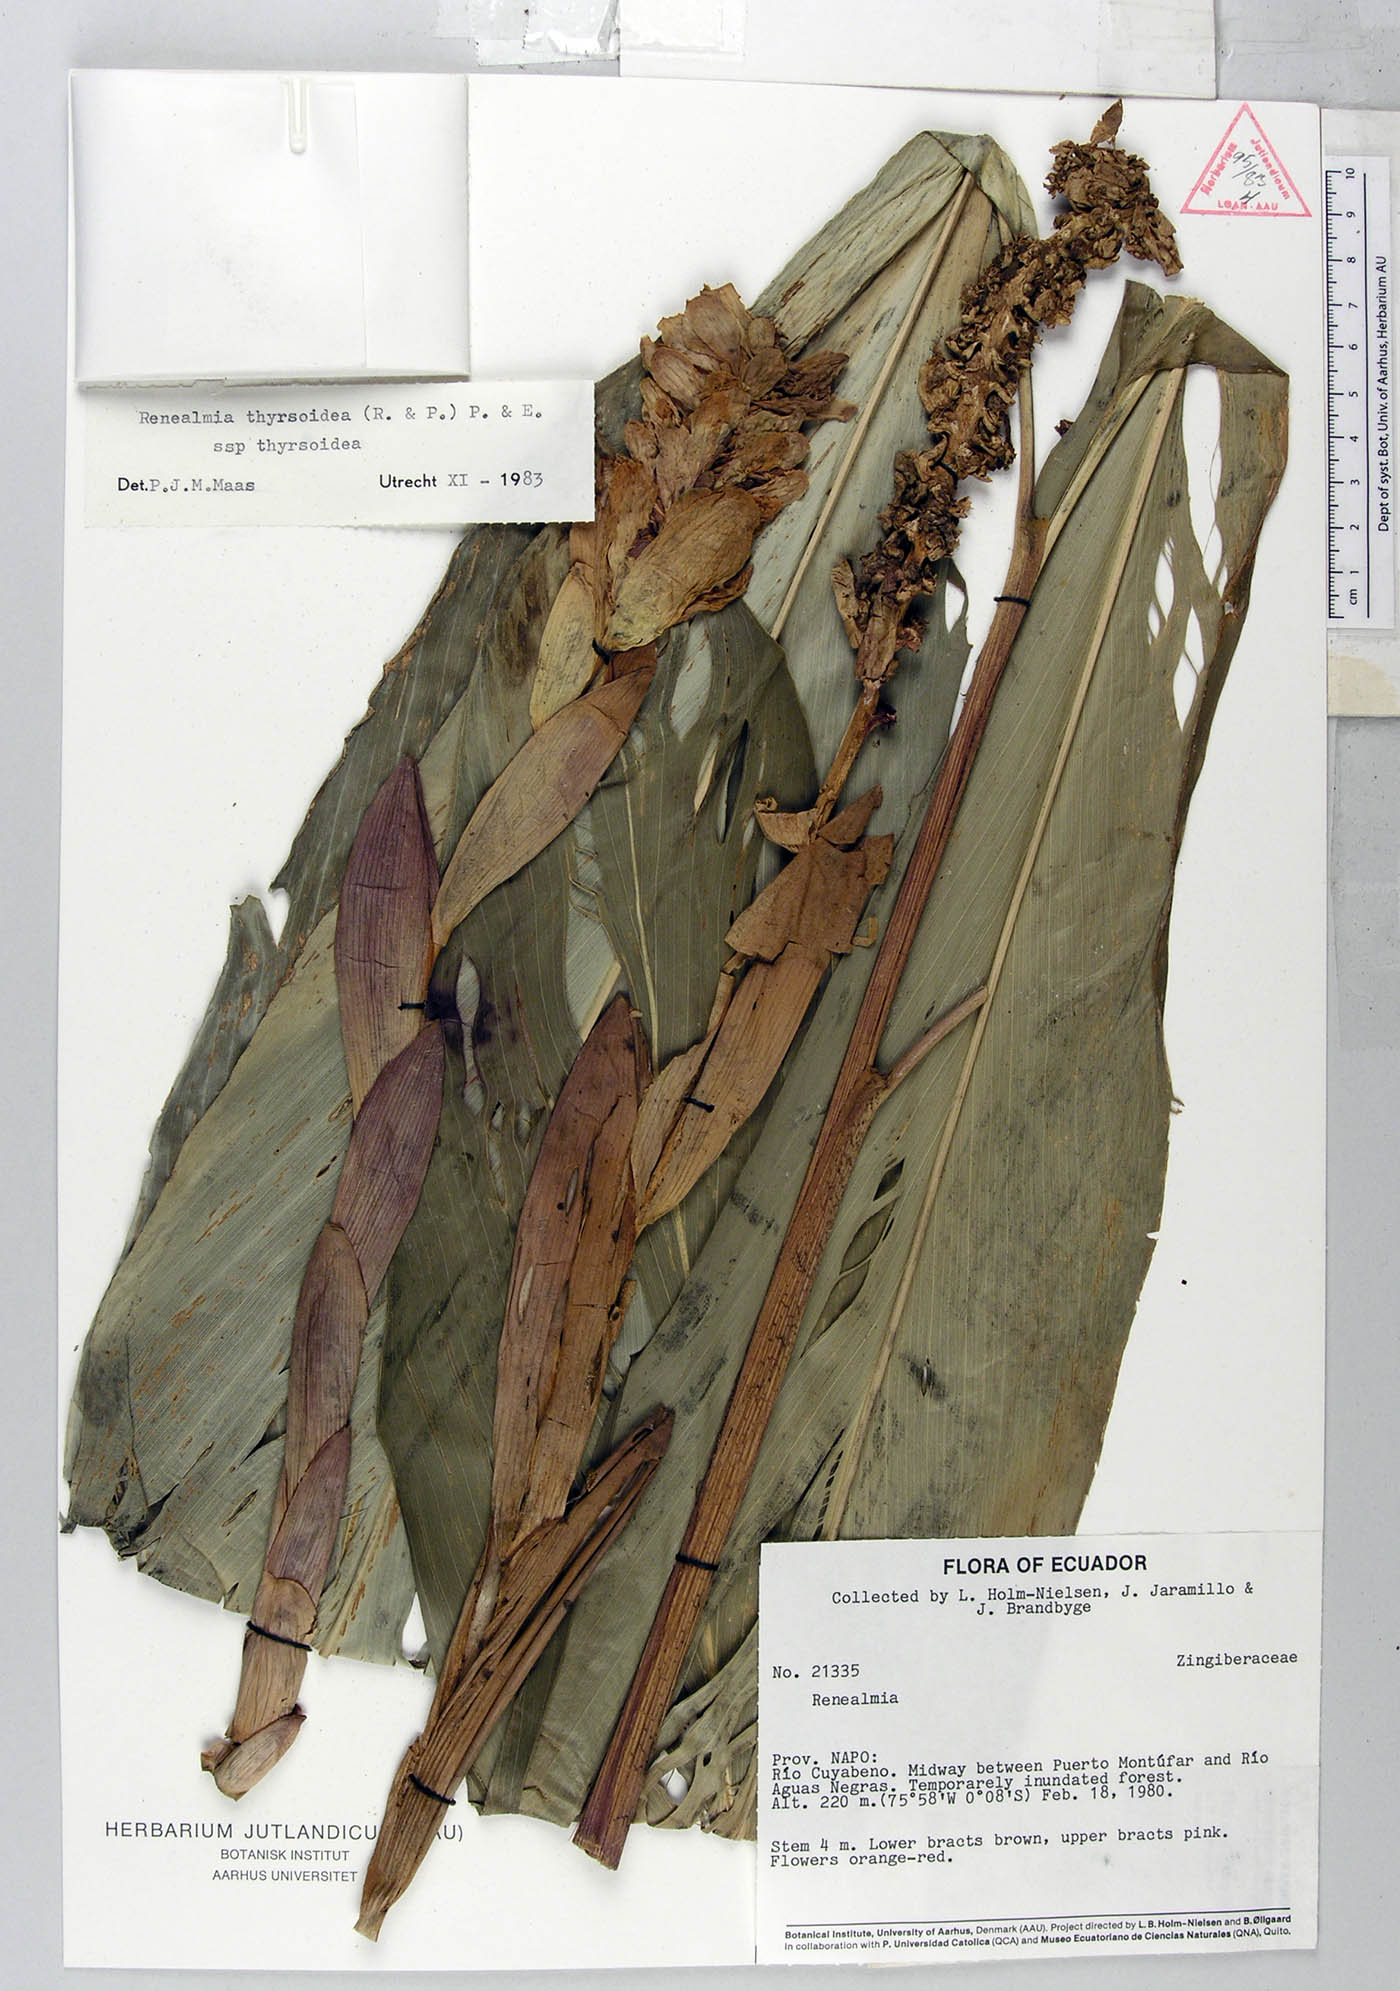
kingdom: Plantae
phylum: Tracheophyta
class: Liliopsida
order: Zingiberales
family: Zingiberaceae
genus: Renealmia
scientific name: Renealmia thyrsoidea
